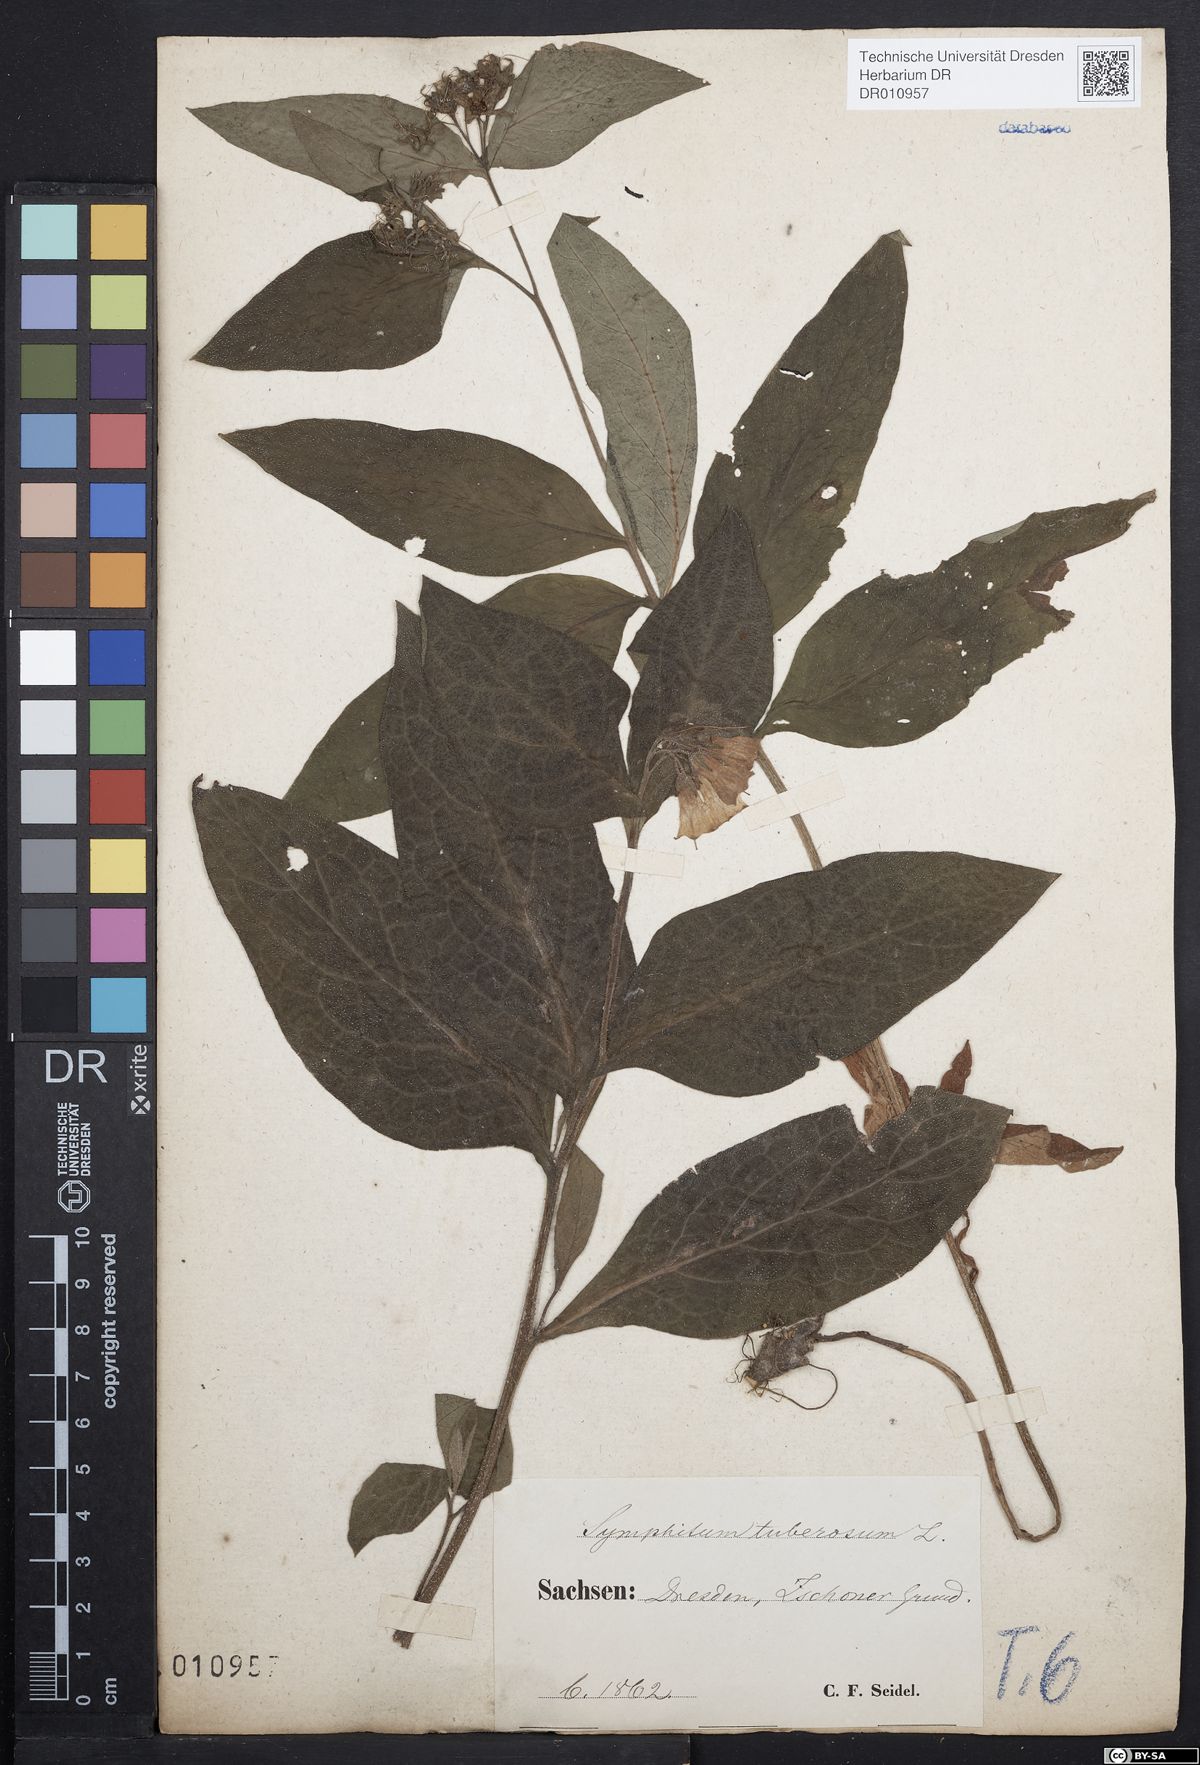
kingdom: Plantae
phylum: Tracheophyta
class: Magnoliopsida
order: Boraginales
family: Boraginaceae
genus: Symphytum
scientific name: Symphytum tuberosum
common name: Tuberous comfrey
